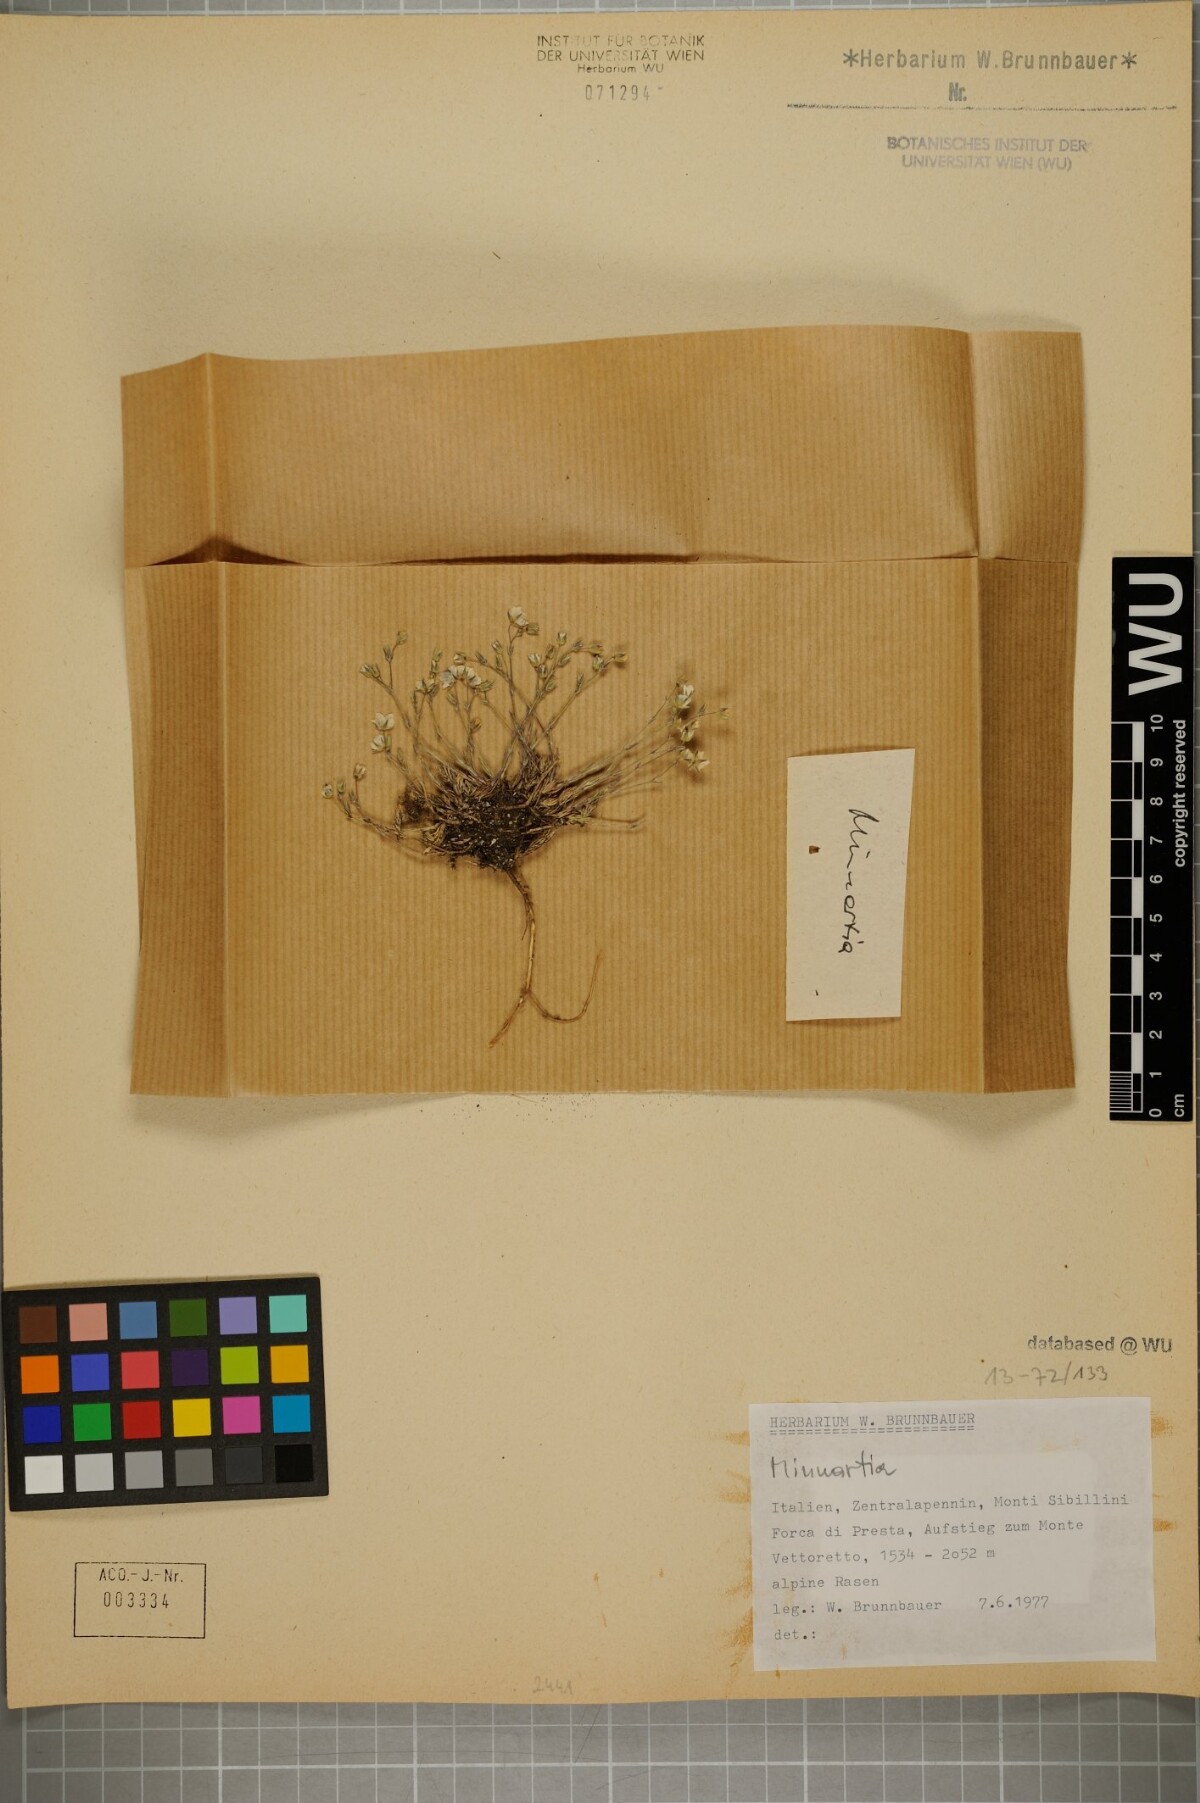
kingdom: Plantae
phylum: Tracheophyta
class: Magnoliopsida
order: Caryophyllales
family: Caryophyllaceae
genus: Sabulina
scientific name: Sabulina verna
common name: Spring sandwort
